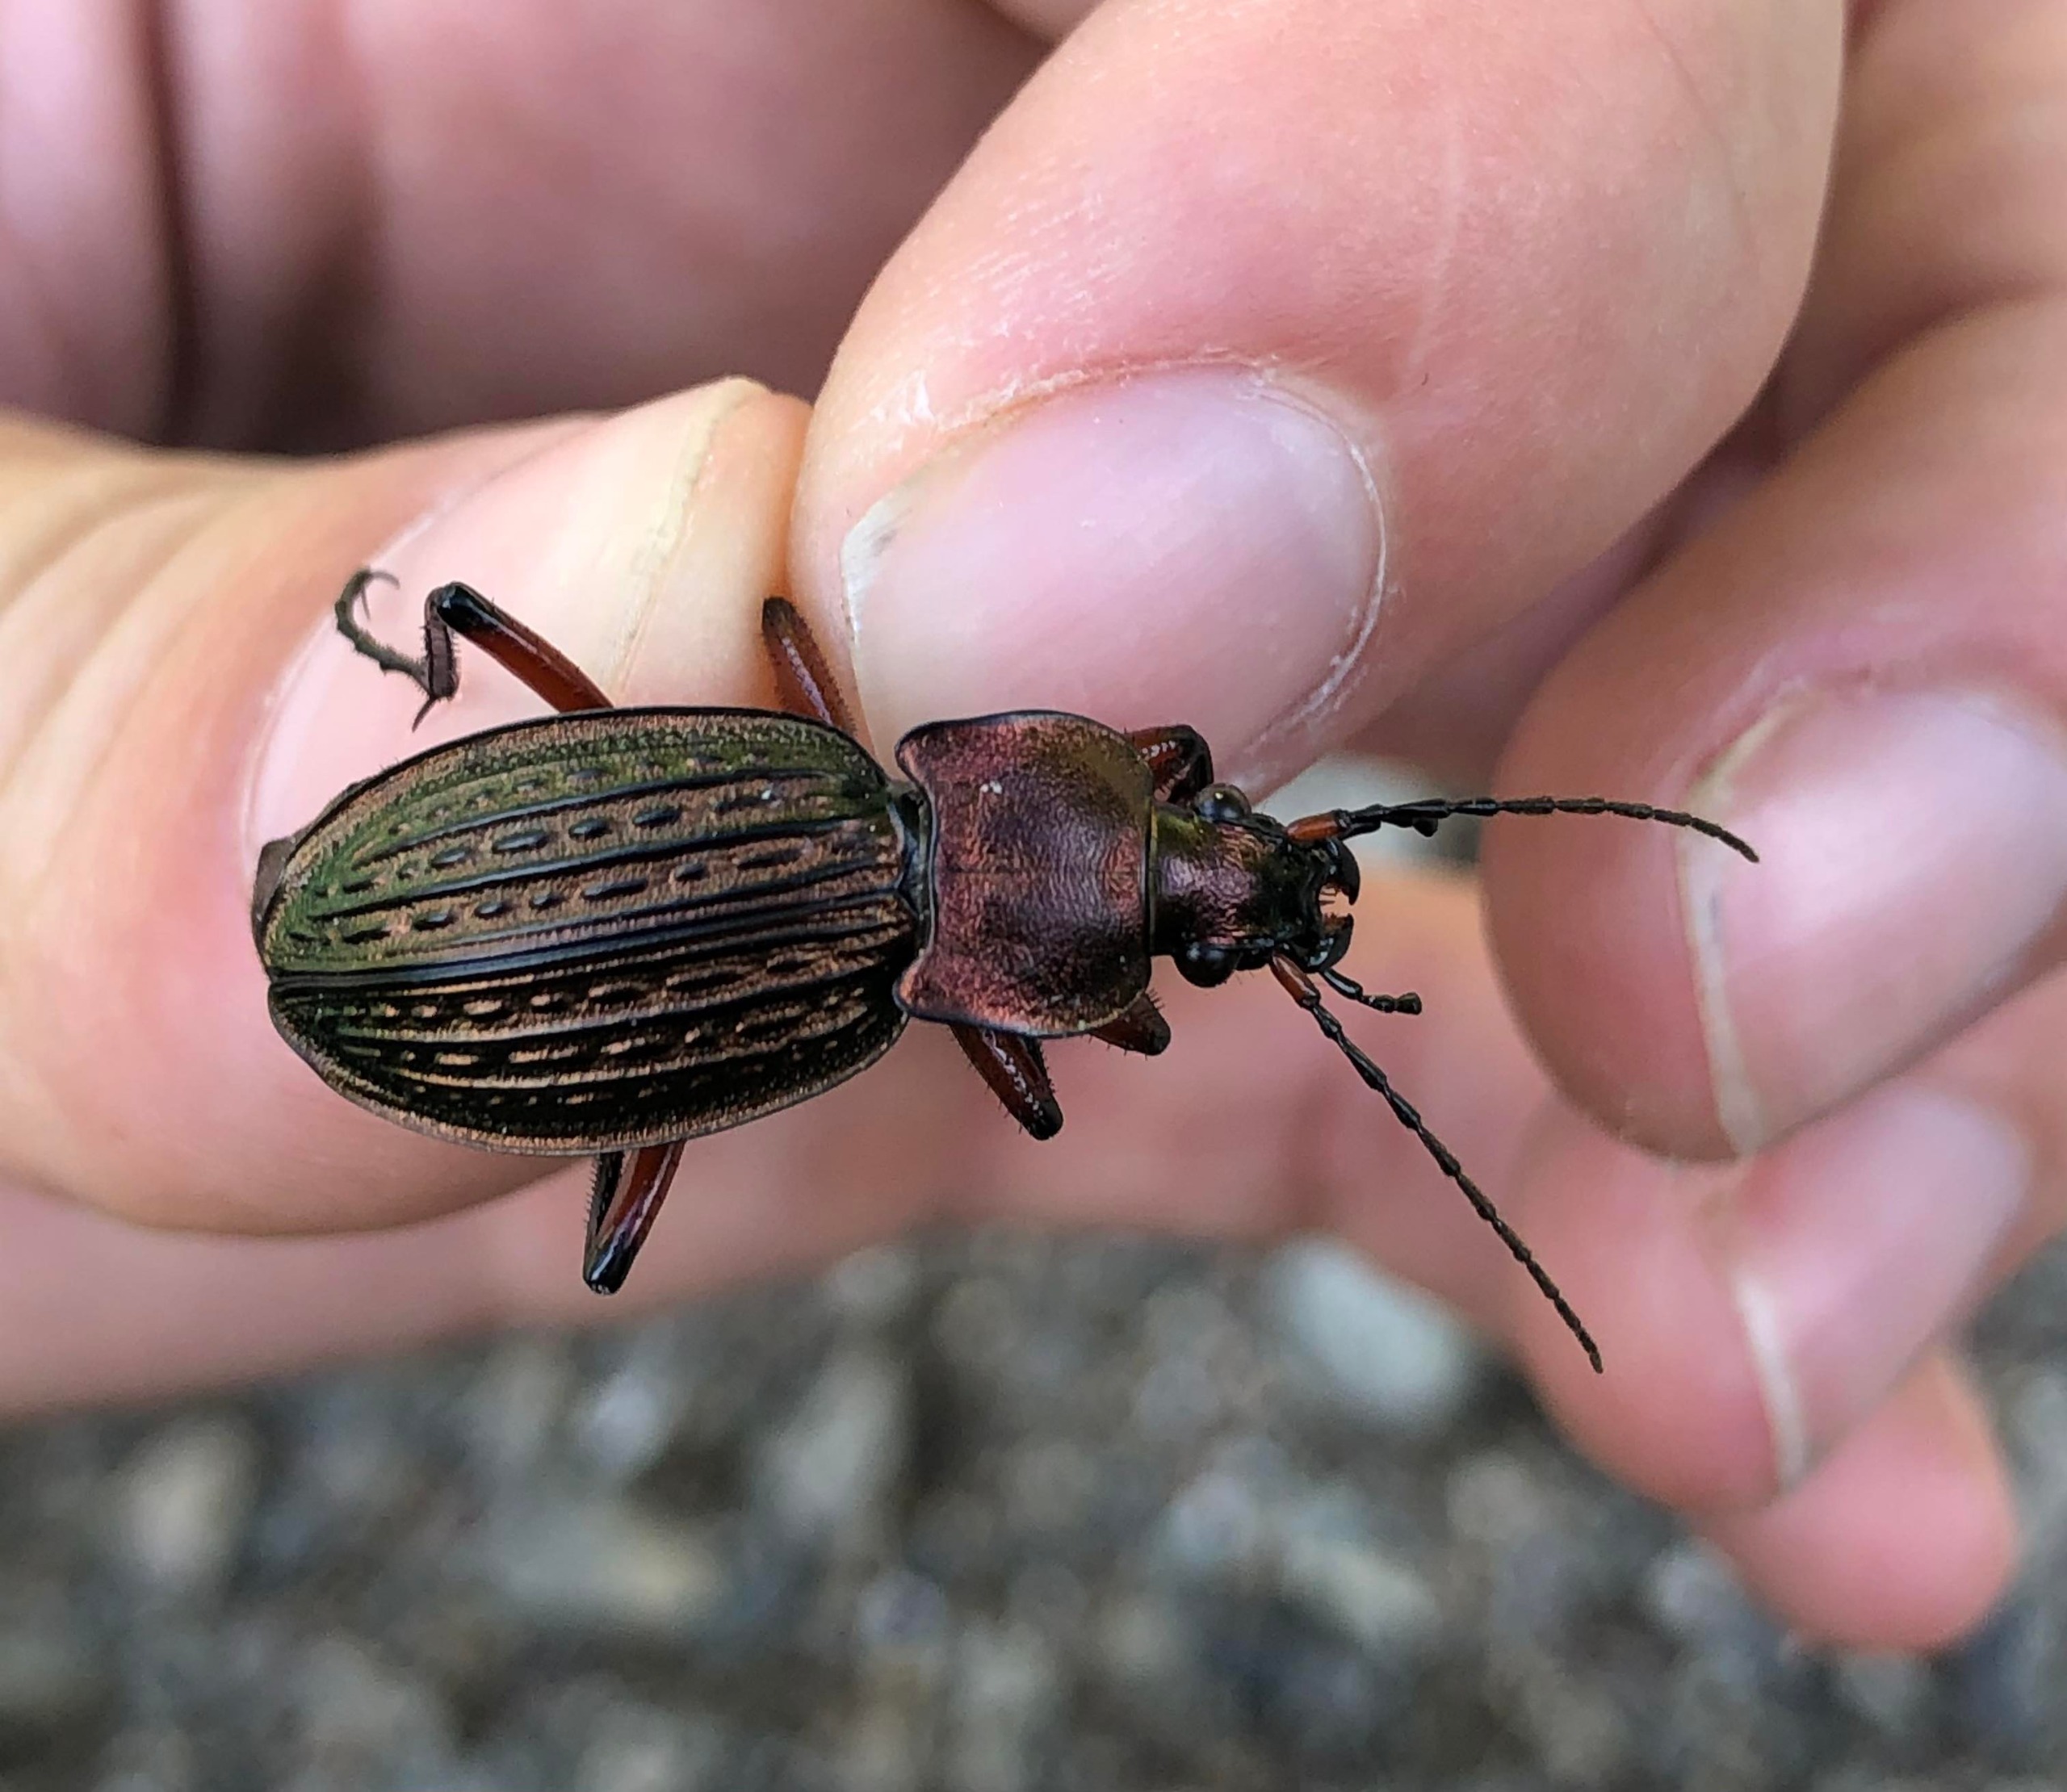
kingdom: Animalia
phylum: Arthropoda
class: Insecta
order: Coleoptera
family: Carabidae
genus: Carabus
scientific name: Carabus cancellatus
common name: Overdrevsløber
